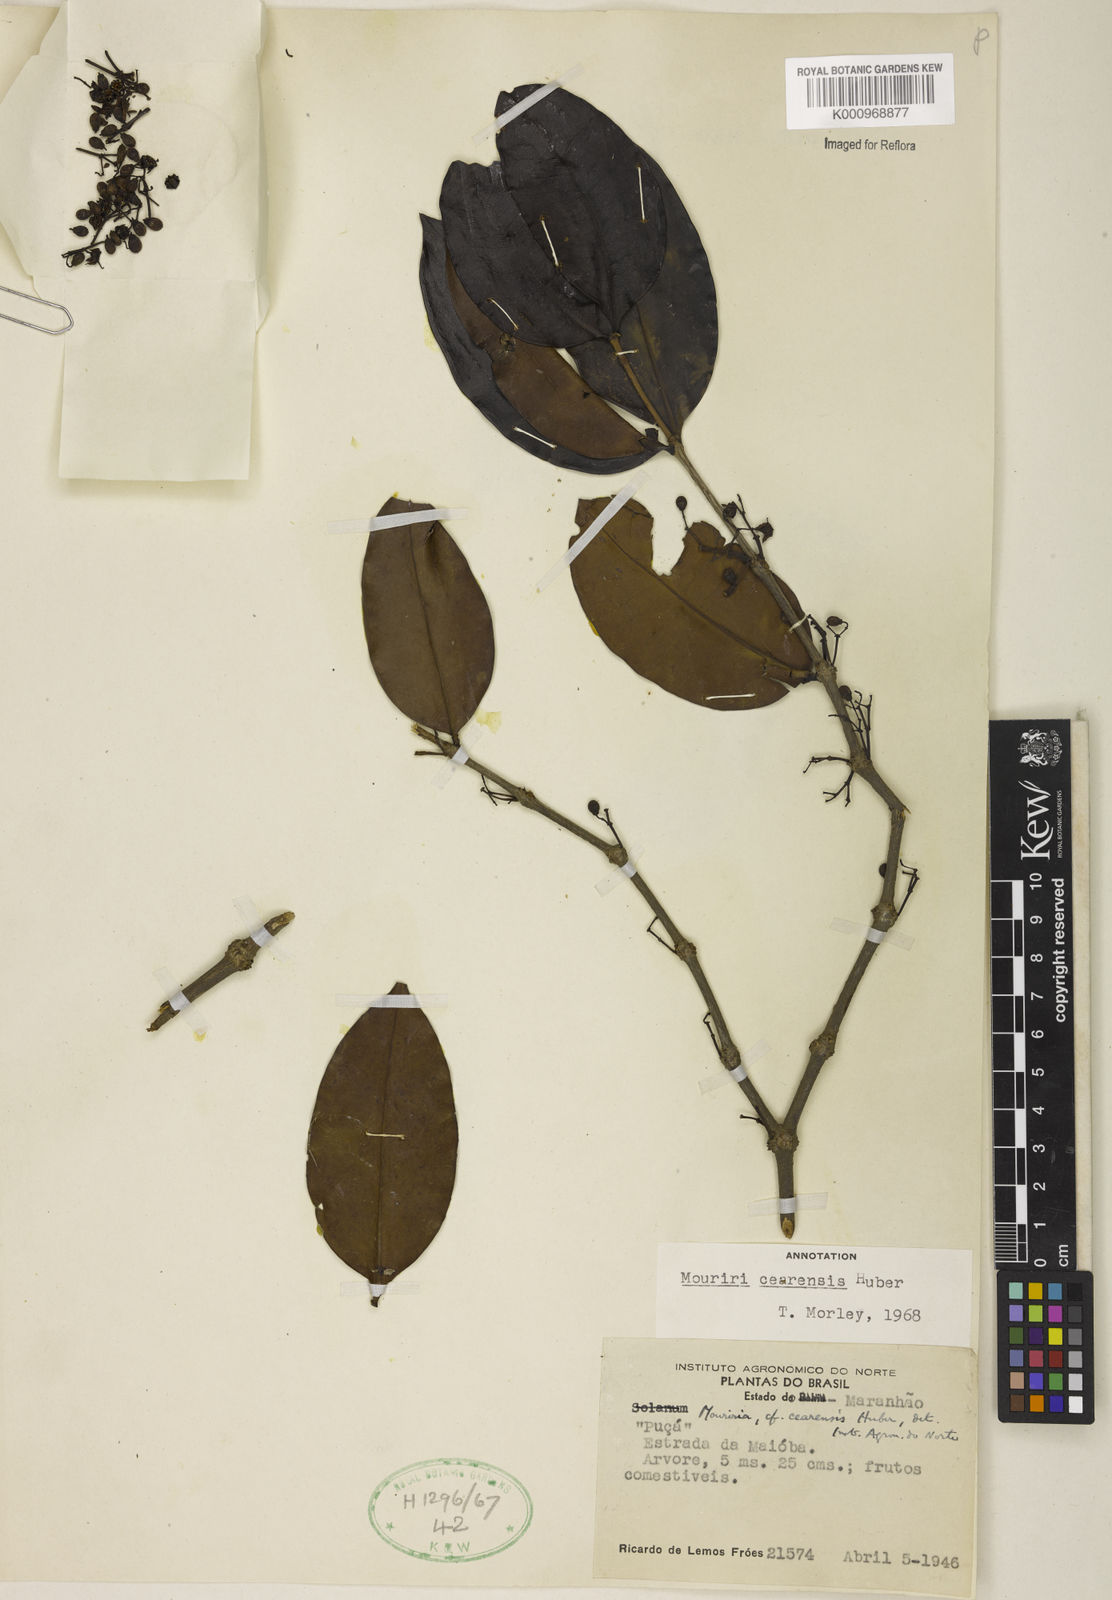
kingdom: Plantae
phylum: Tracheophyta
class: Magnoliopsida
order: Myrtales
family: Melastomataceae
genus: Mouriri
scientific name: Mouriri cearensis
